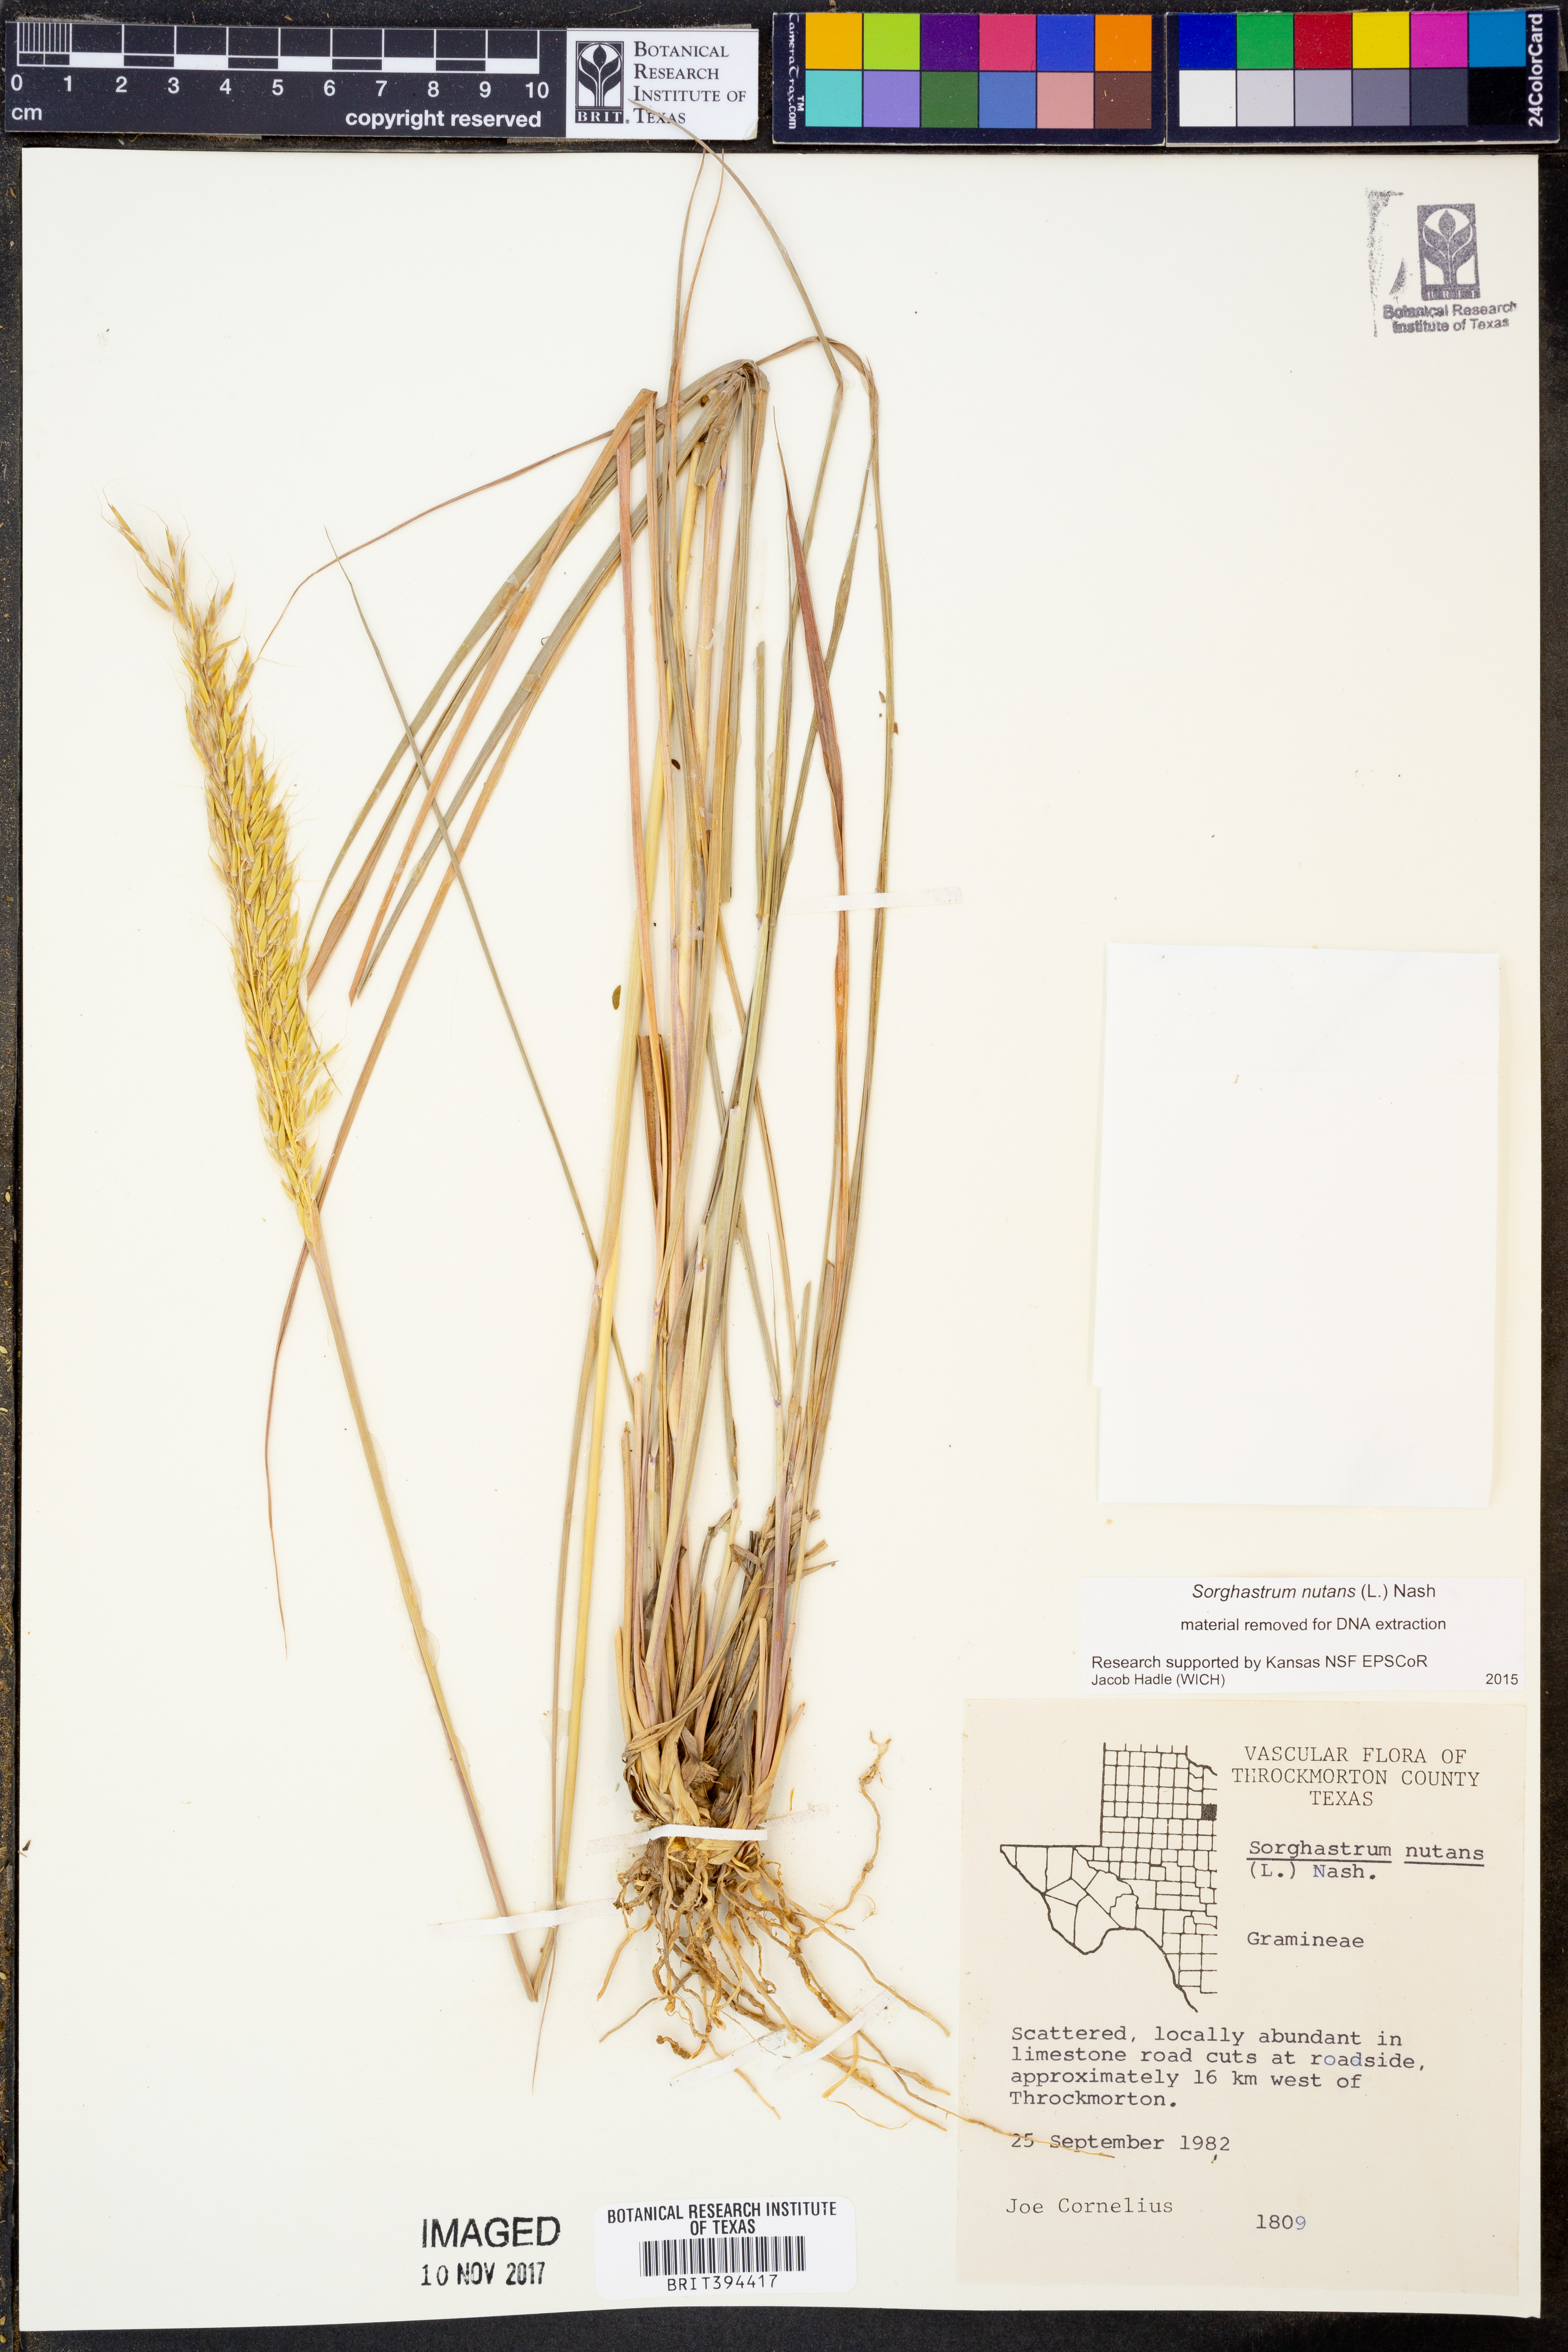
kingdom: Plantae
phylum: Tracheophyta
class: Liliopsida
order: Poales
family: Poaceae
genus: Sorghastrum
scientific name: Sorghastrum nutans
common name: Indian grass
